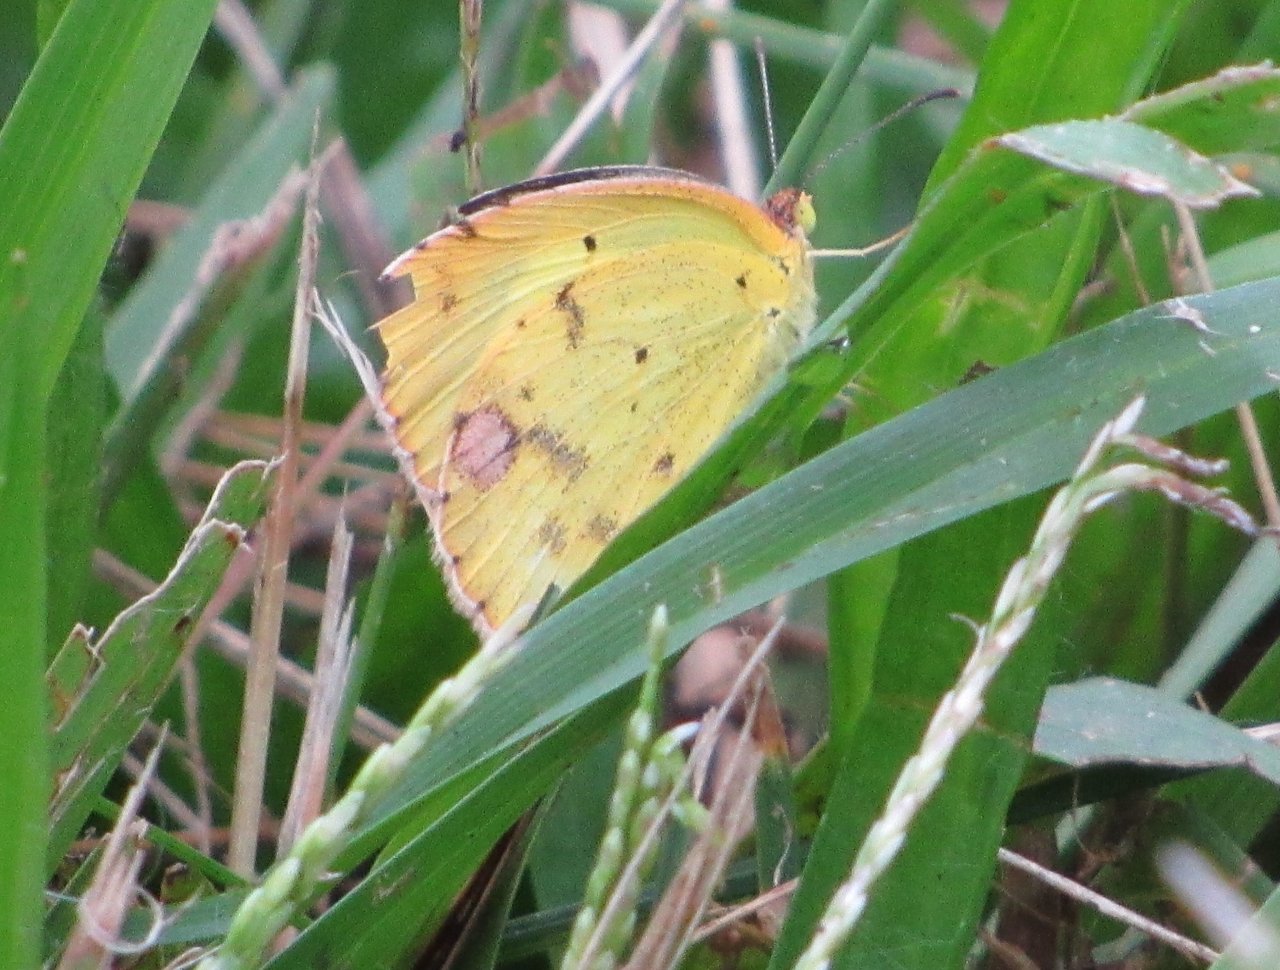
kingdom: Animalia
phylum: Arthropoda
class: Insecta
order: Lepidoptera
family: Pieridae
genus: Pyrisitia
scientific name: Pyrisitia lisa
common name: Little Yellow
